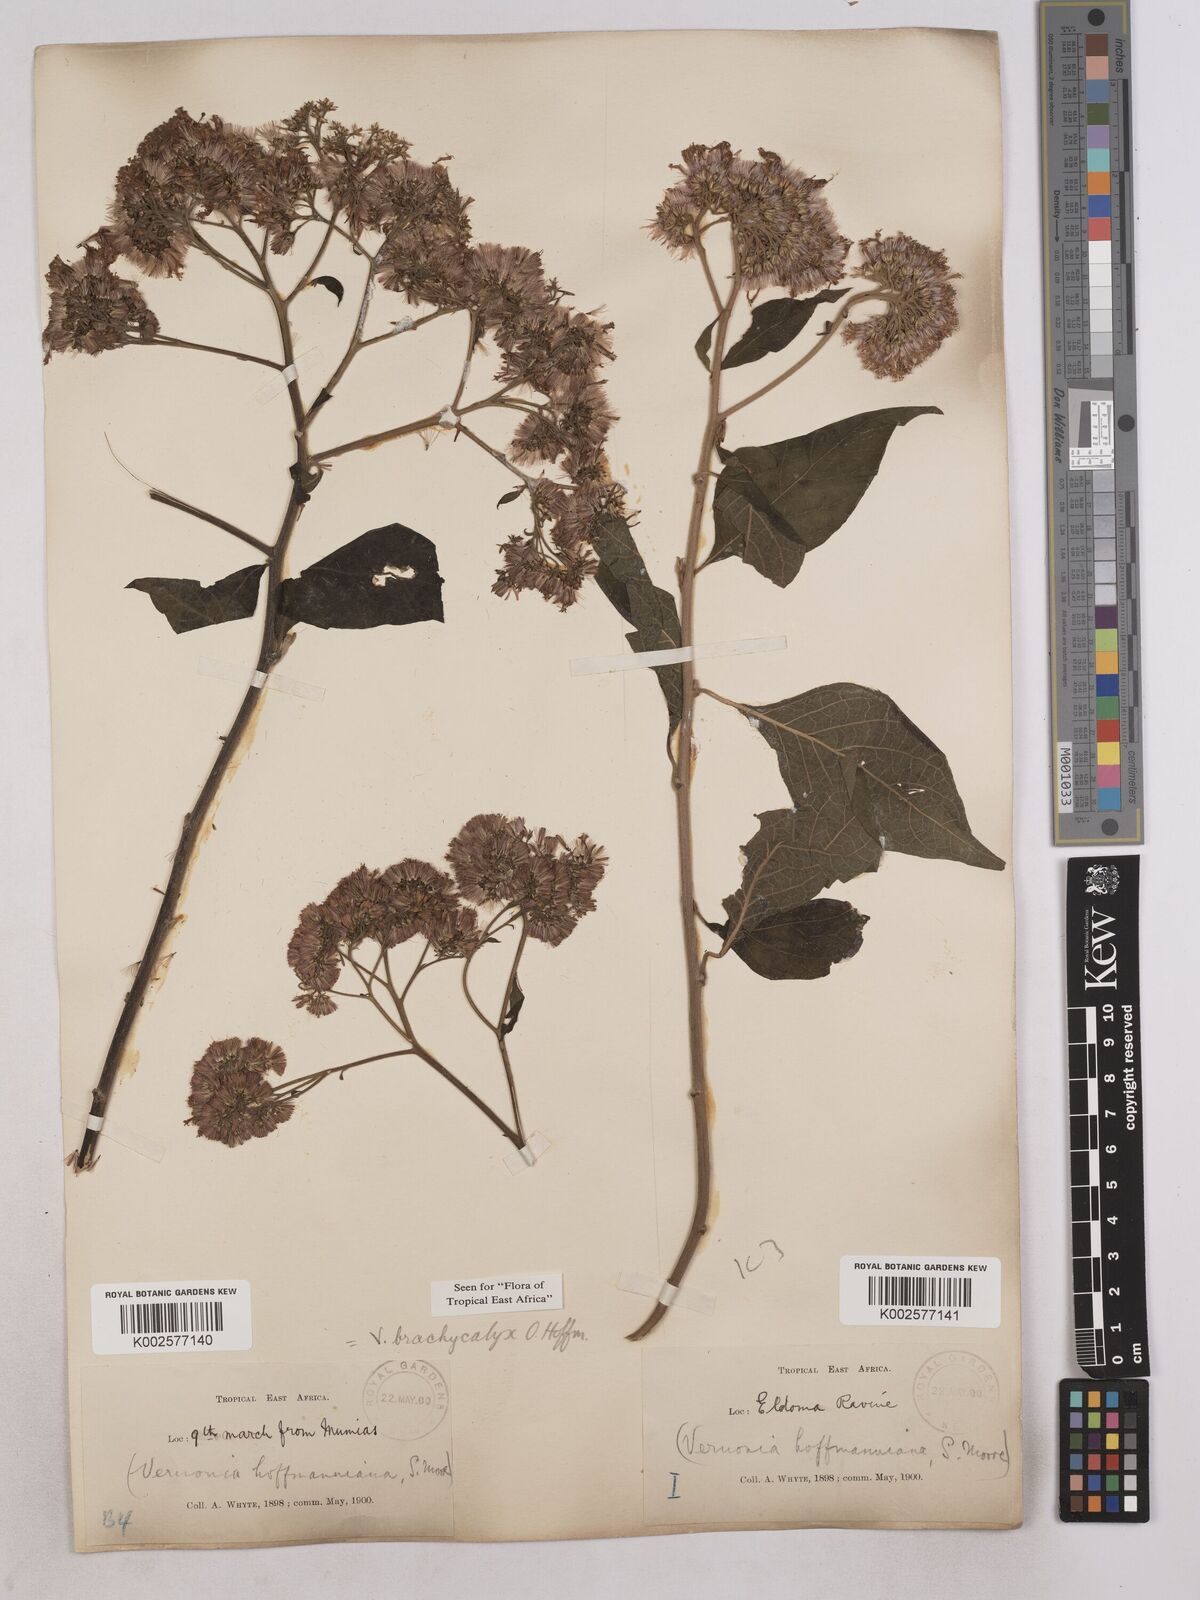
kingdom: Plantae
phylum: Tracheophyta
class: Magnoliopsida
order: Asterales
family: Asteraceae
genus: Hoffmannanthus
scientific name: Hoffmannanthus abbotianus
